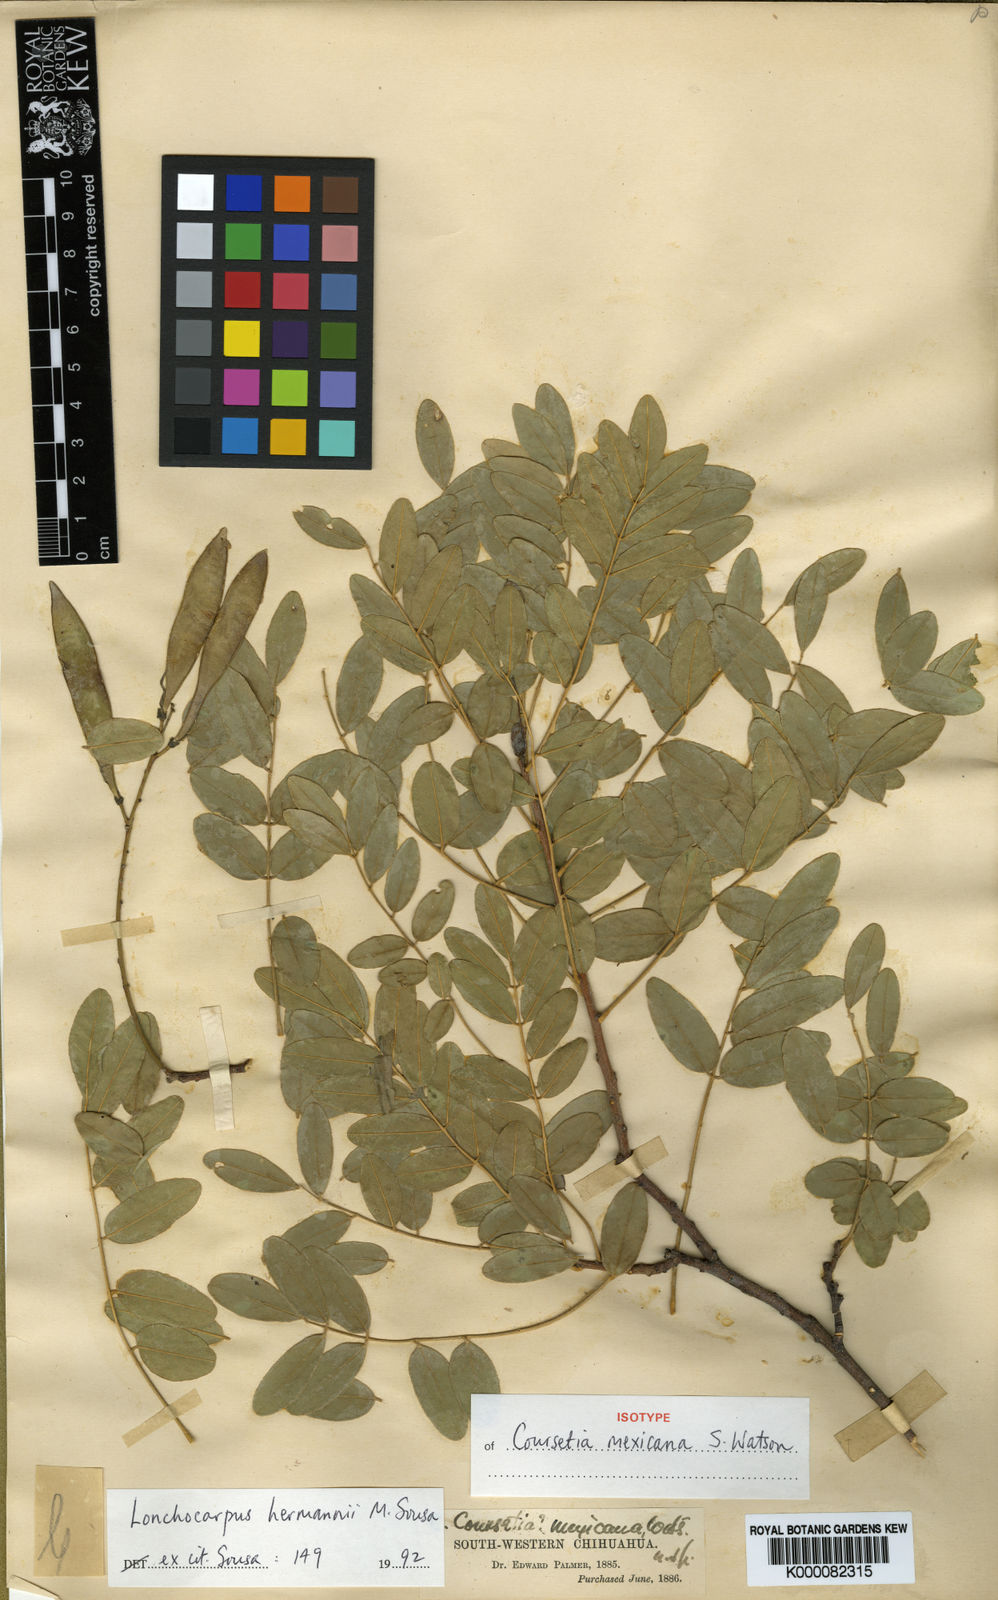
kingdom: Plantae
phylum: Tracheophyta
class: Magnoliopsida
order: Fabales
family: Fabaceae
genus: Lonchocarpus
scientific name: Lonchocarpus hermannii
